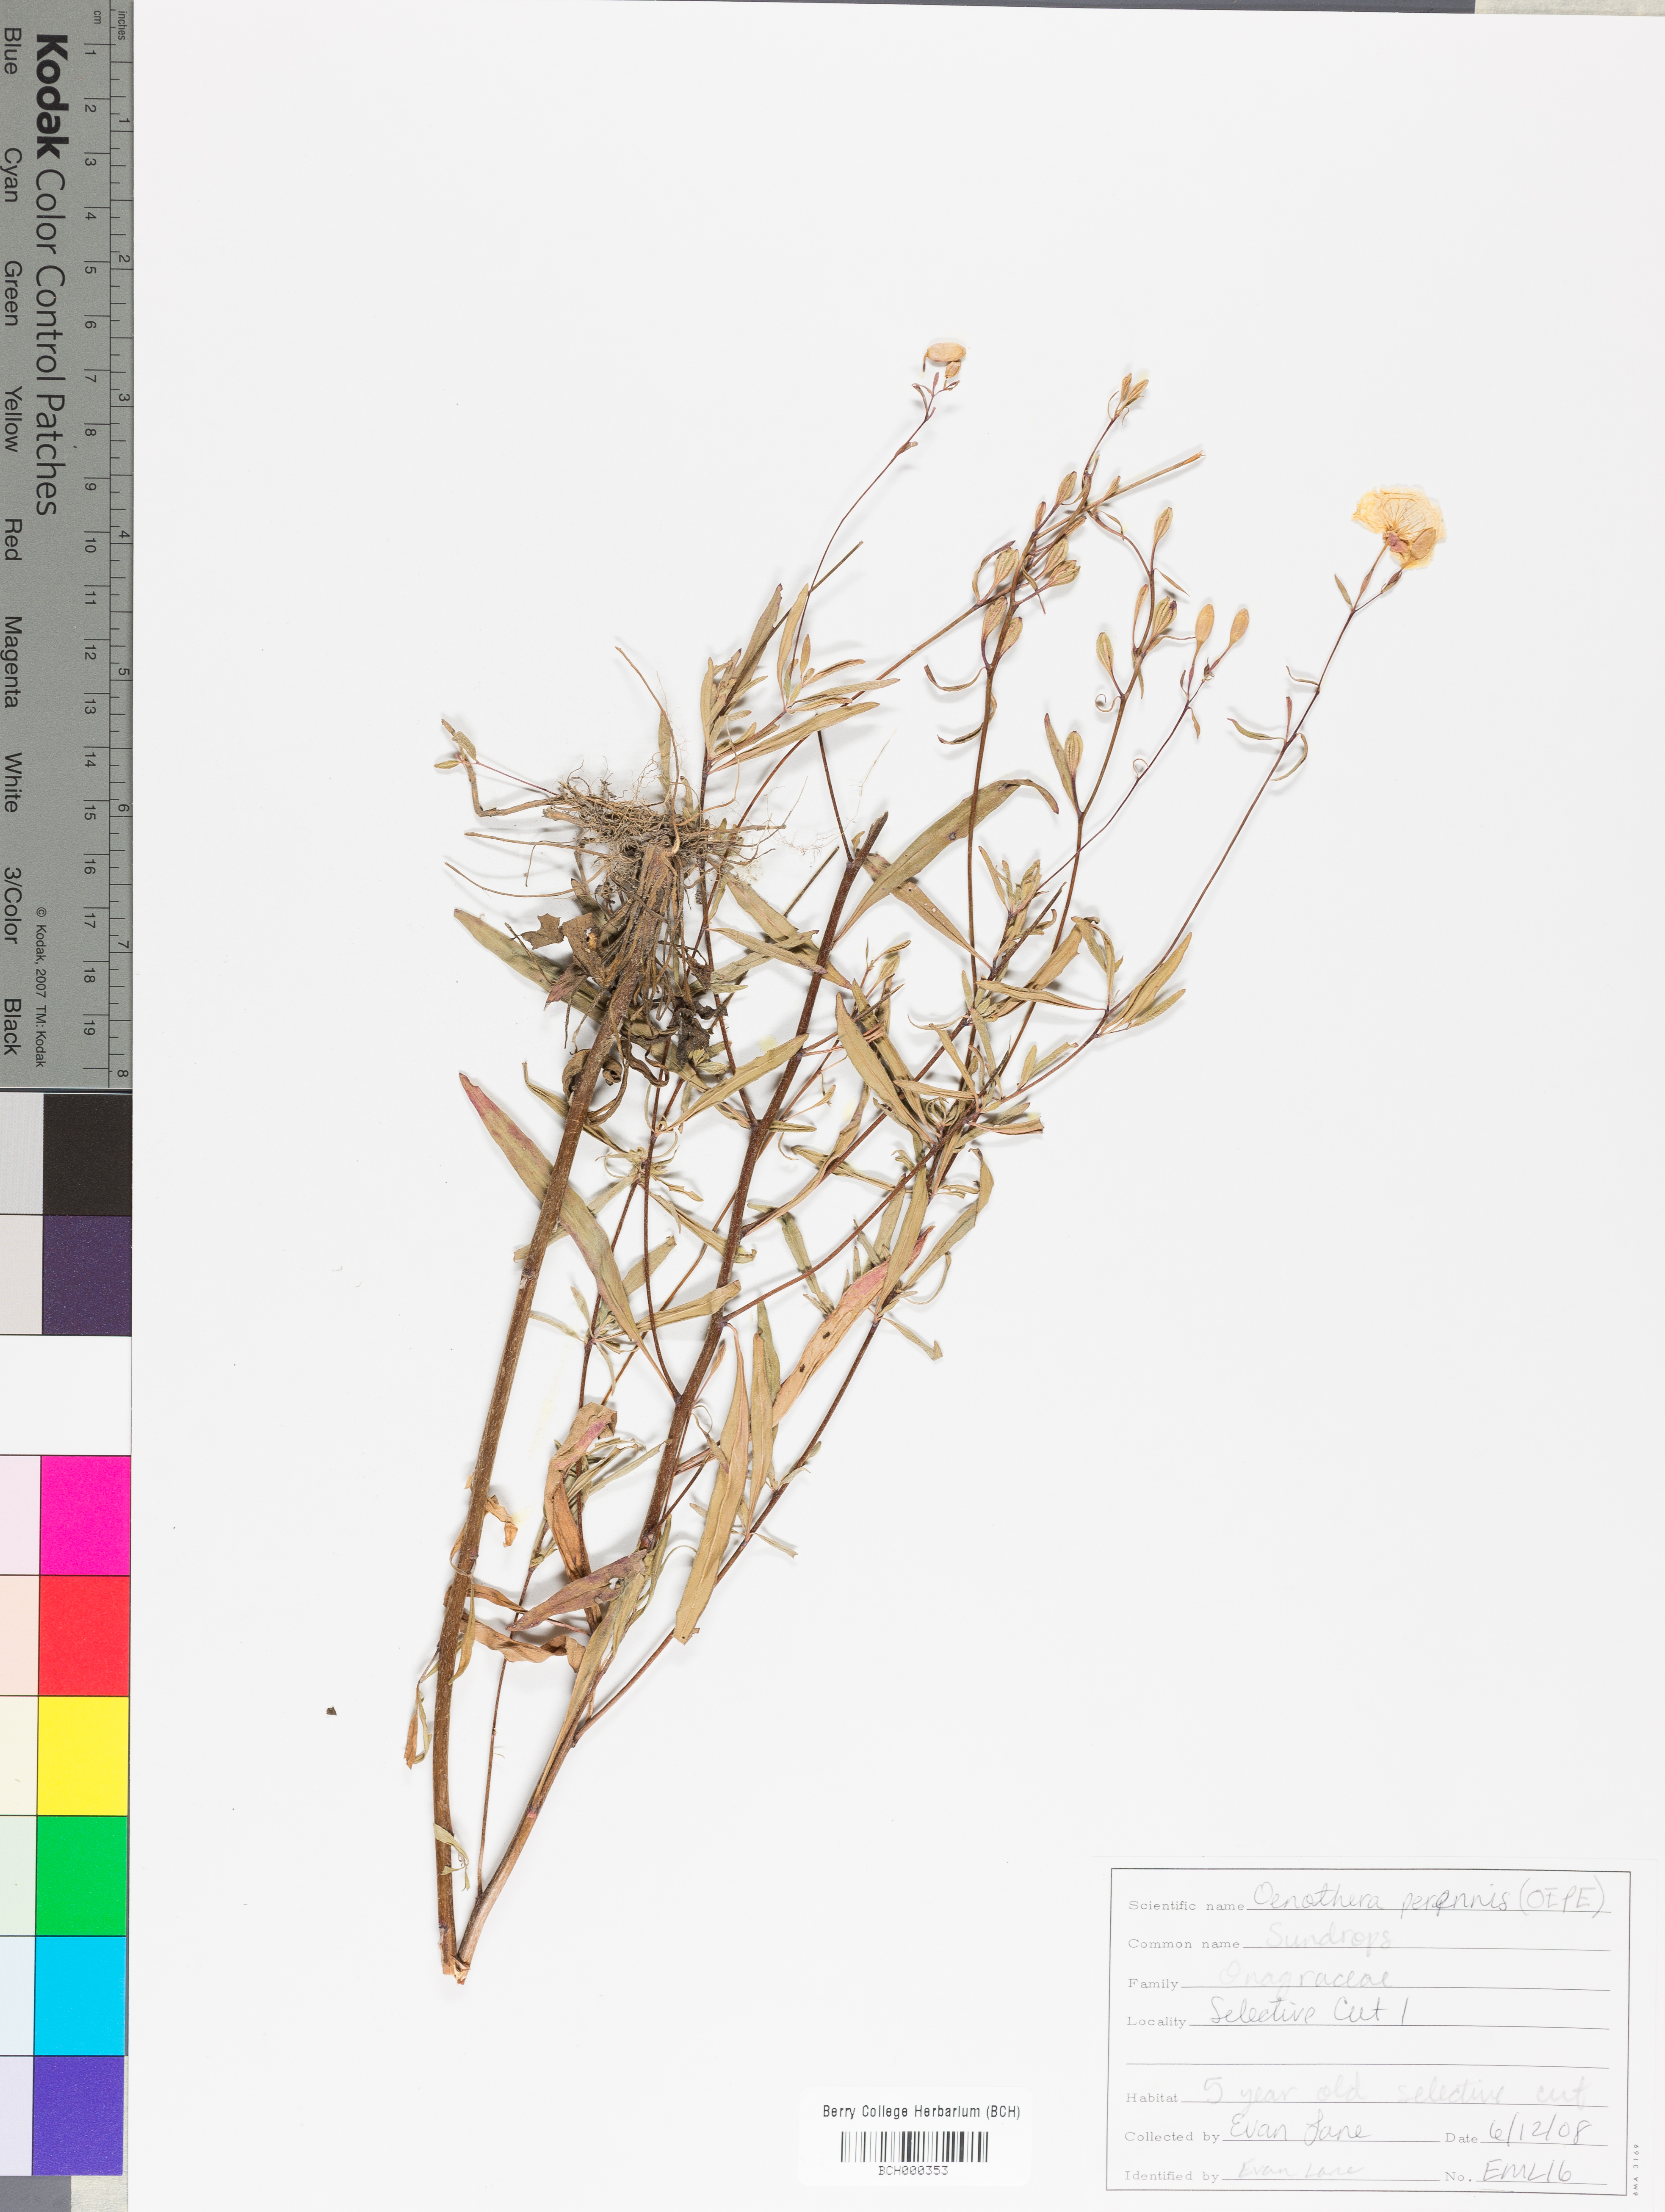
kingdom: Plantae
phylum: Tracheophyta
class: Magnoliopsida
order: Myrtales
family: Onagraceae
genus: Oenothera
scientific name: Oenothera perennis
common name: Small sundrops
